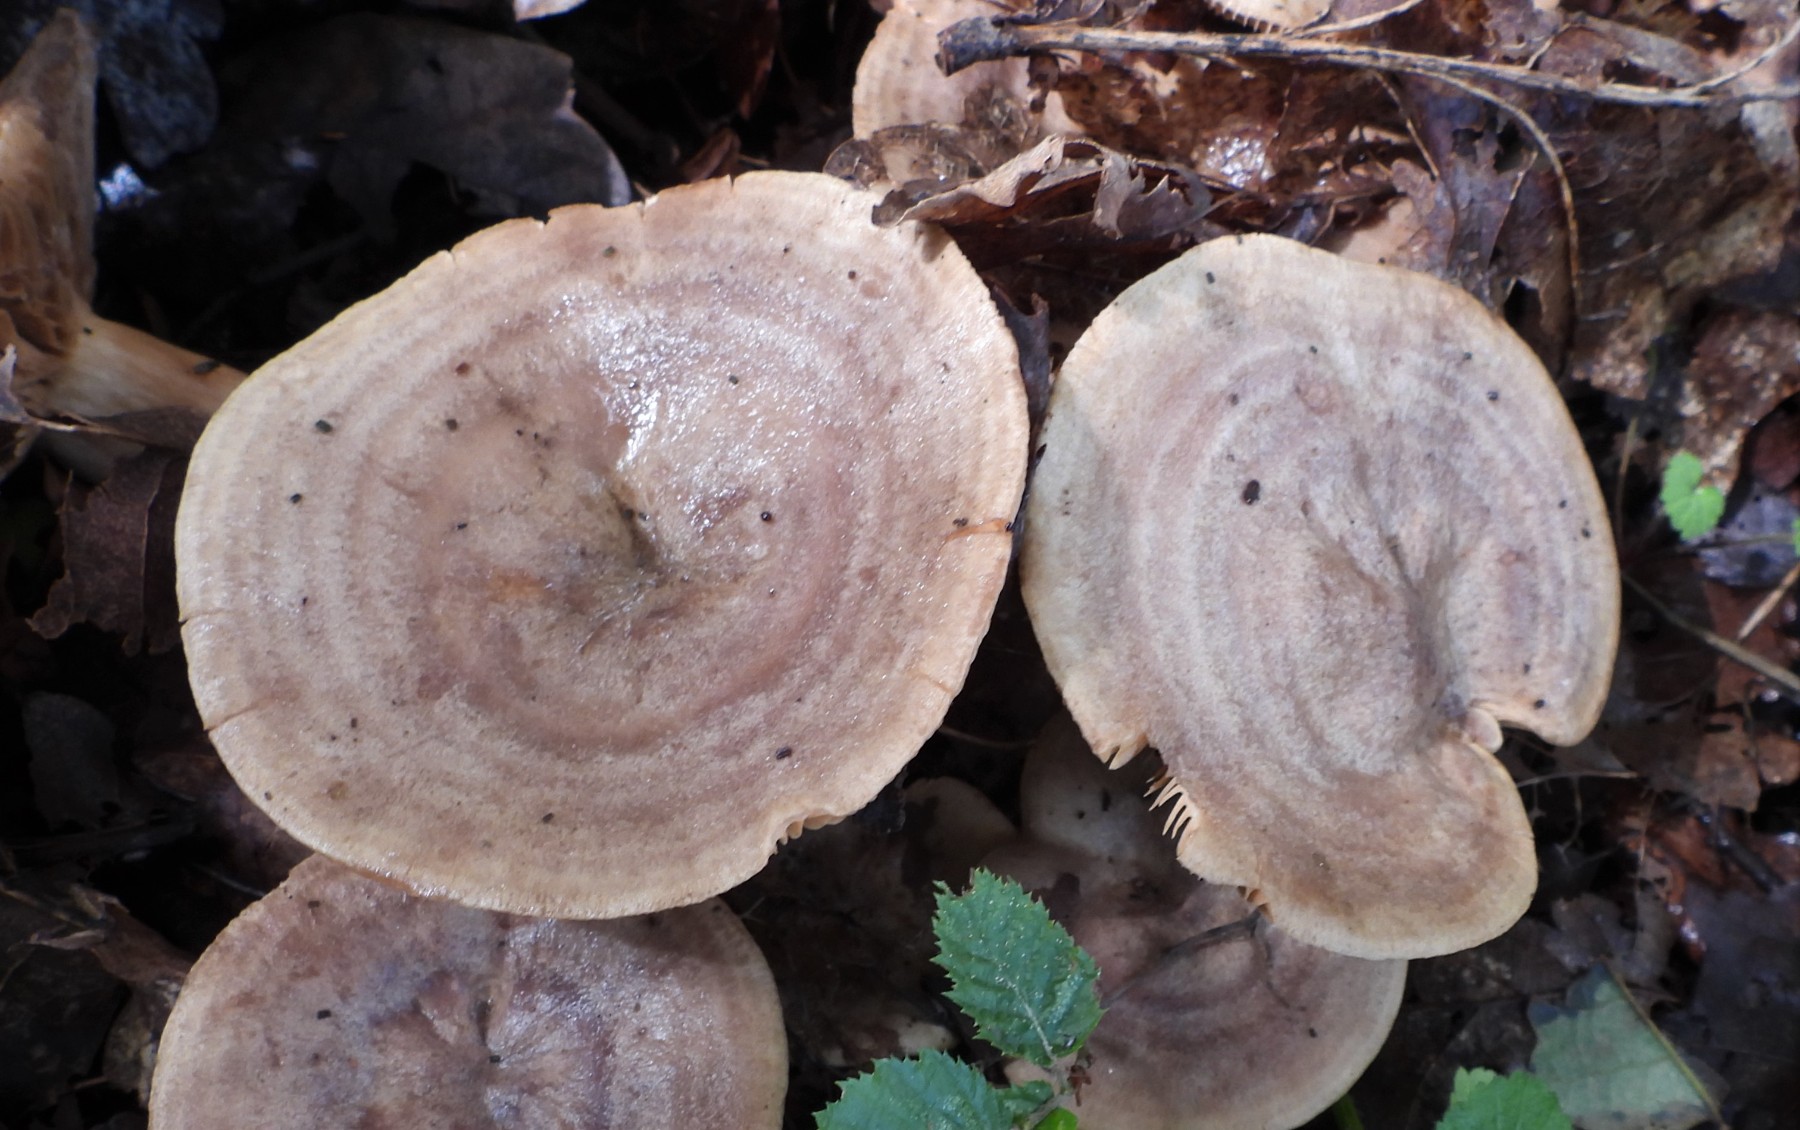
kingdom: Fungi
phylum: Basidiomycota
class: Agaricomycetes
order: Russulales
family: Russulaceae
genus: Lactarius
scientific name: Lactarius circellatus
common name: avnbøg-mælkehat
